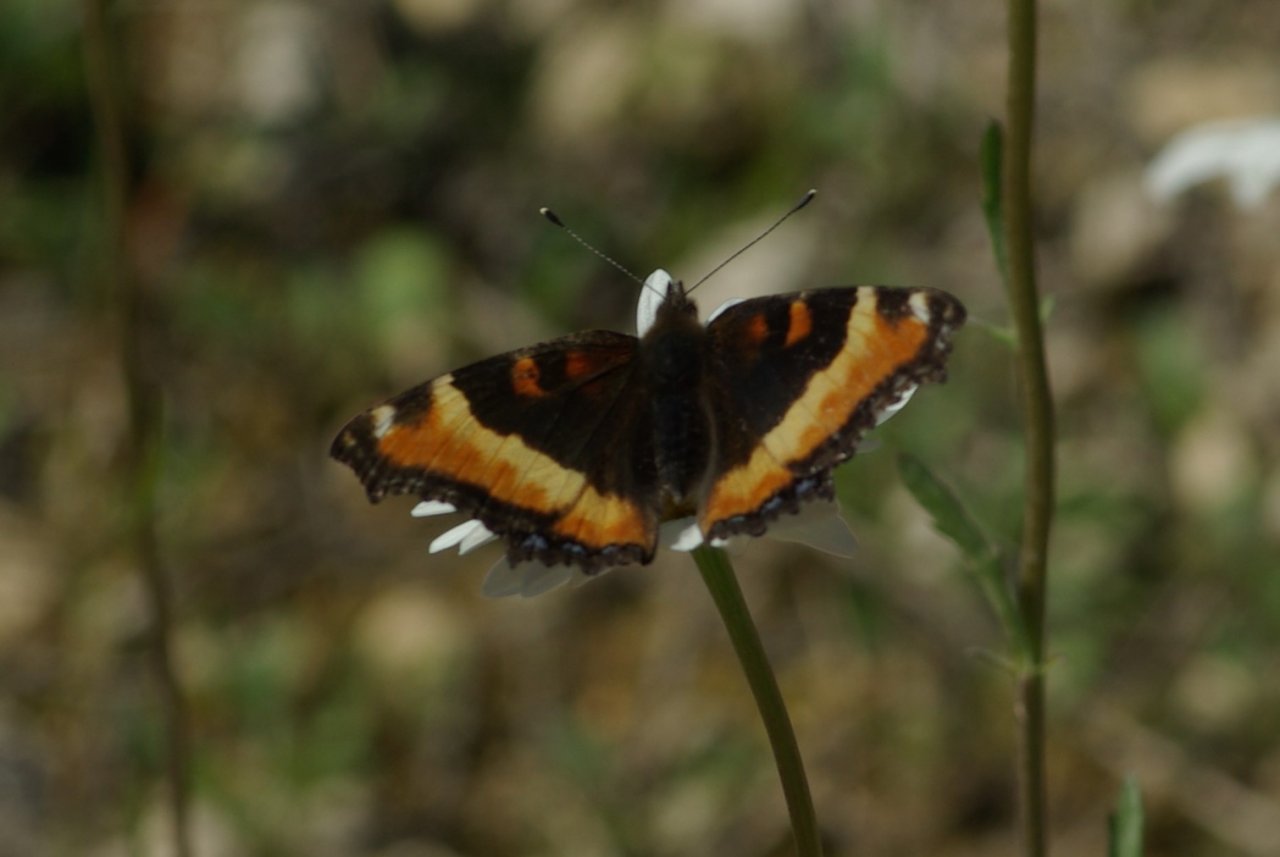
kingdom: Animalia
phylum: Arthropoda
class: Insecta
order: Lepidoptera
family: Nymphalidae
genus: Aglais
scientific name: Aglais milberti
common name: Milbert's Tortoiseshell
